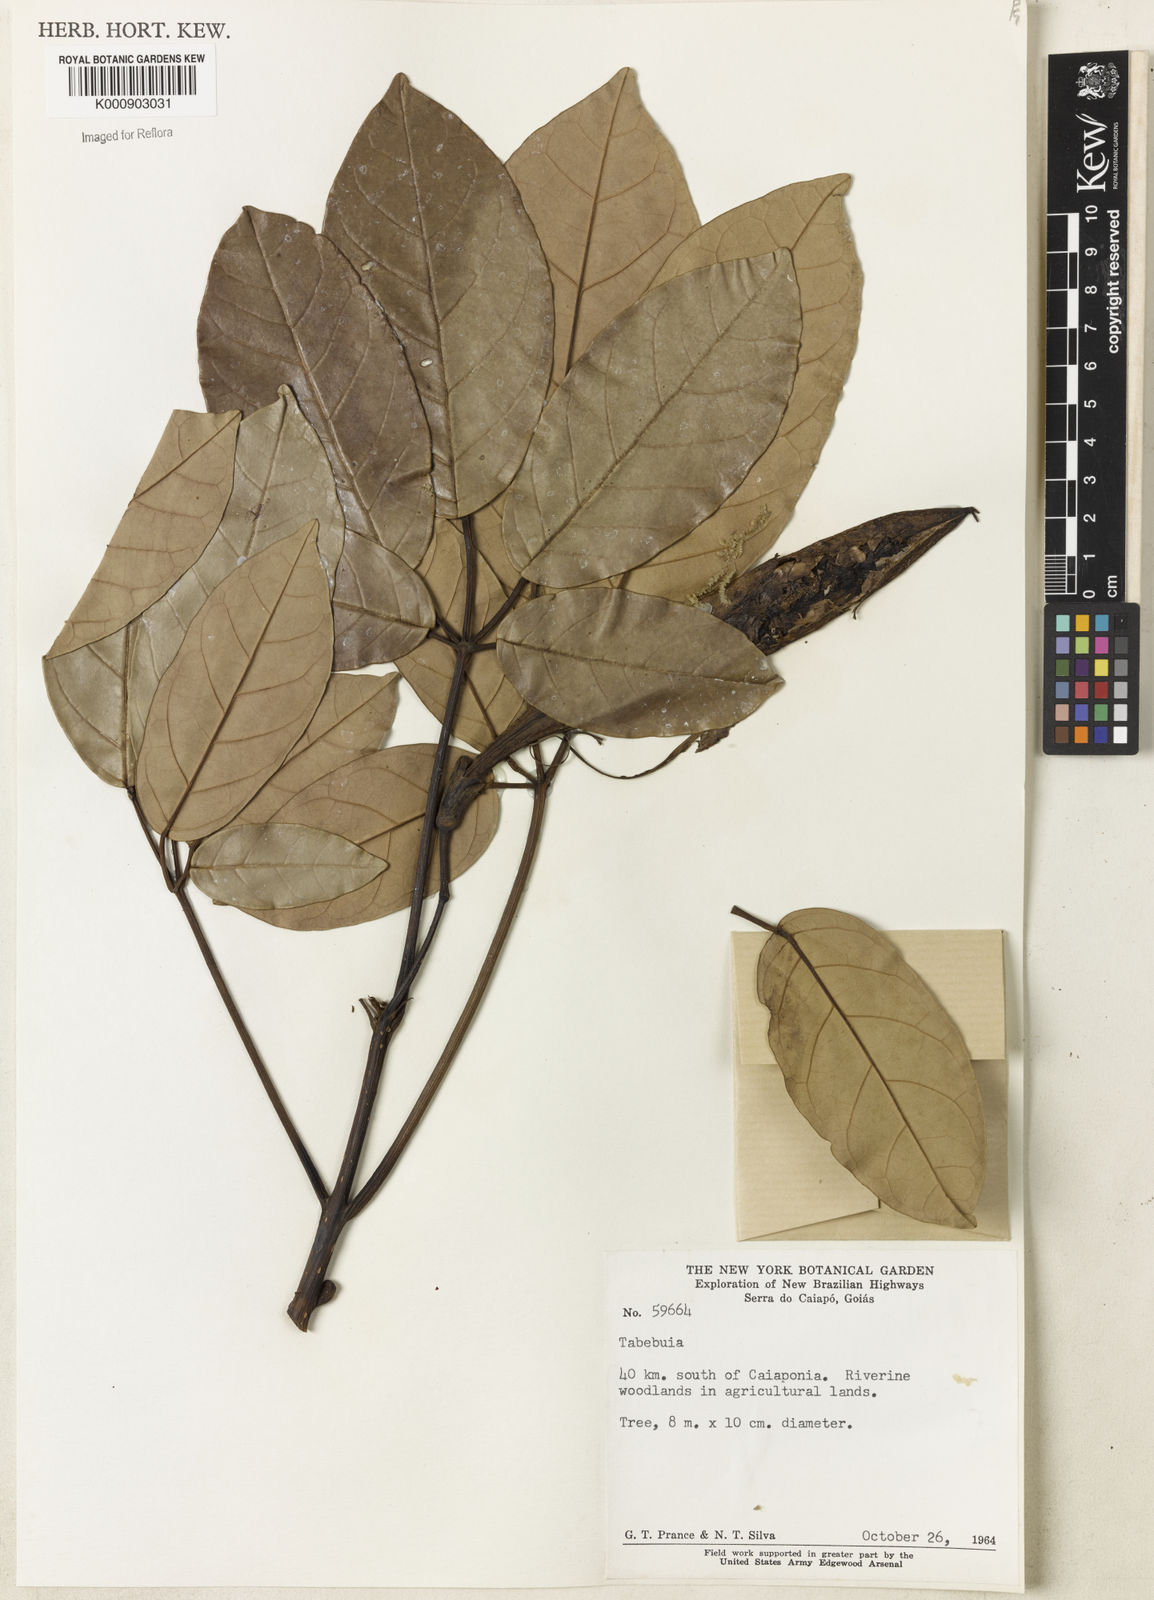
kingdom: Plantae
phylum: Tracheophyta
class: Magnoliopsida
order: Lamiales
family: Bignoniaceae
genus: Tabebuia
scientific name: Tabebuia
